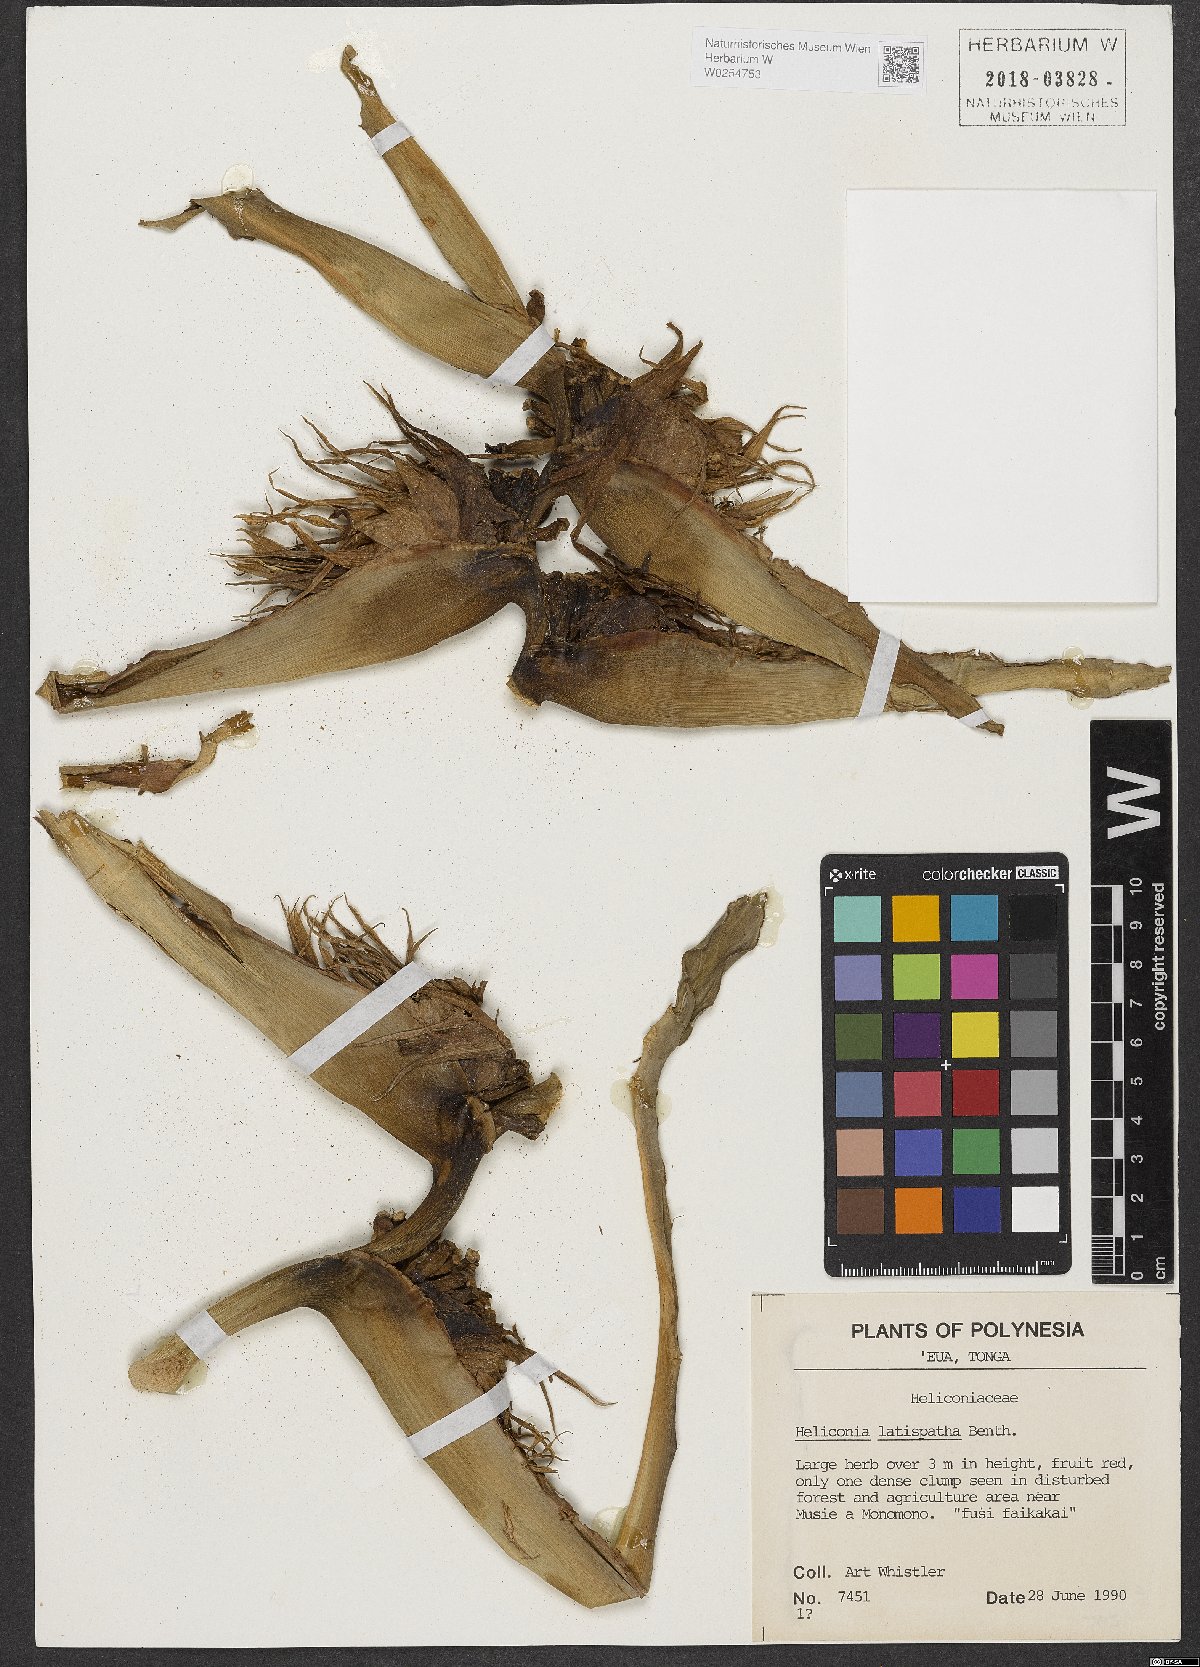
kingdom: Plantae
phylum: Tracheophyta
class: Liliopsida
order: Zingiberales
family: Heliconiaceae
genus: Heliconia
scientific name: Heliconia latispatha
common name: Expanded lobsterclaw
